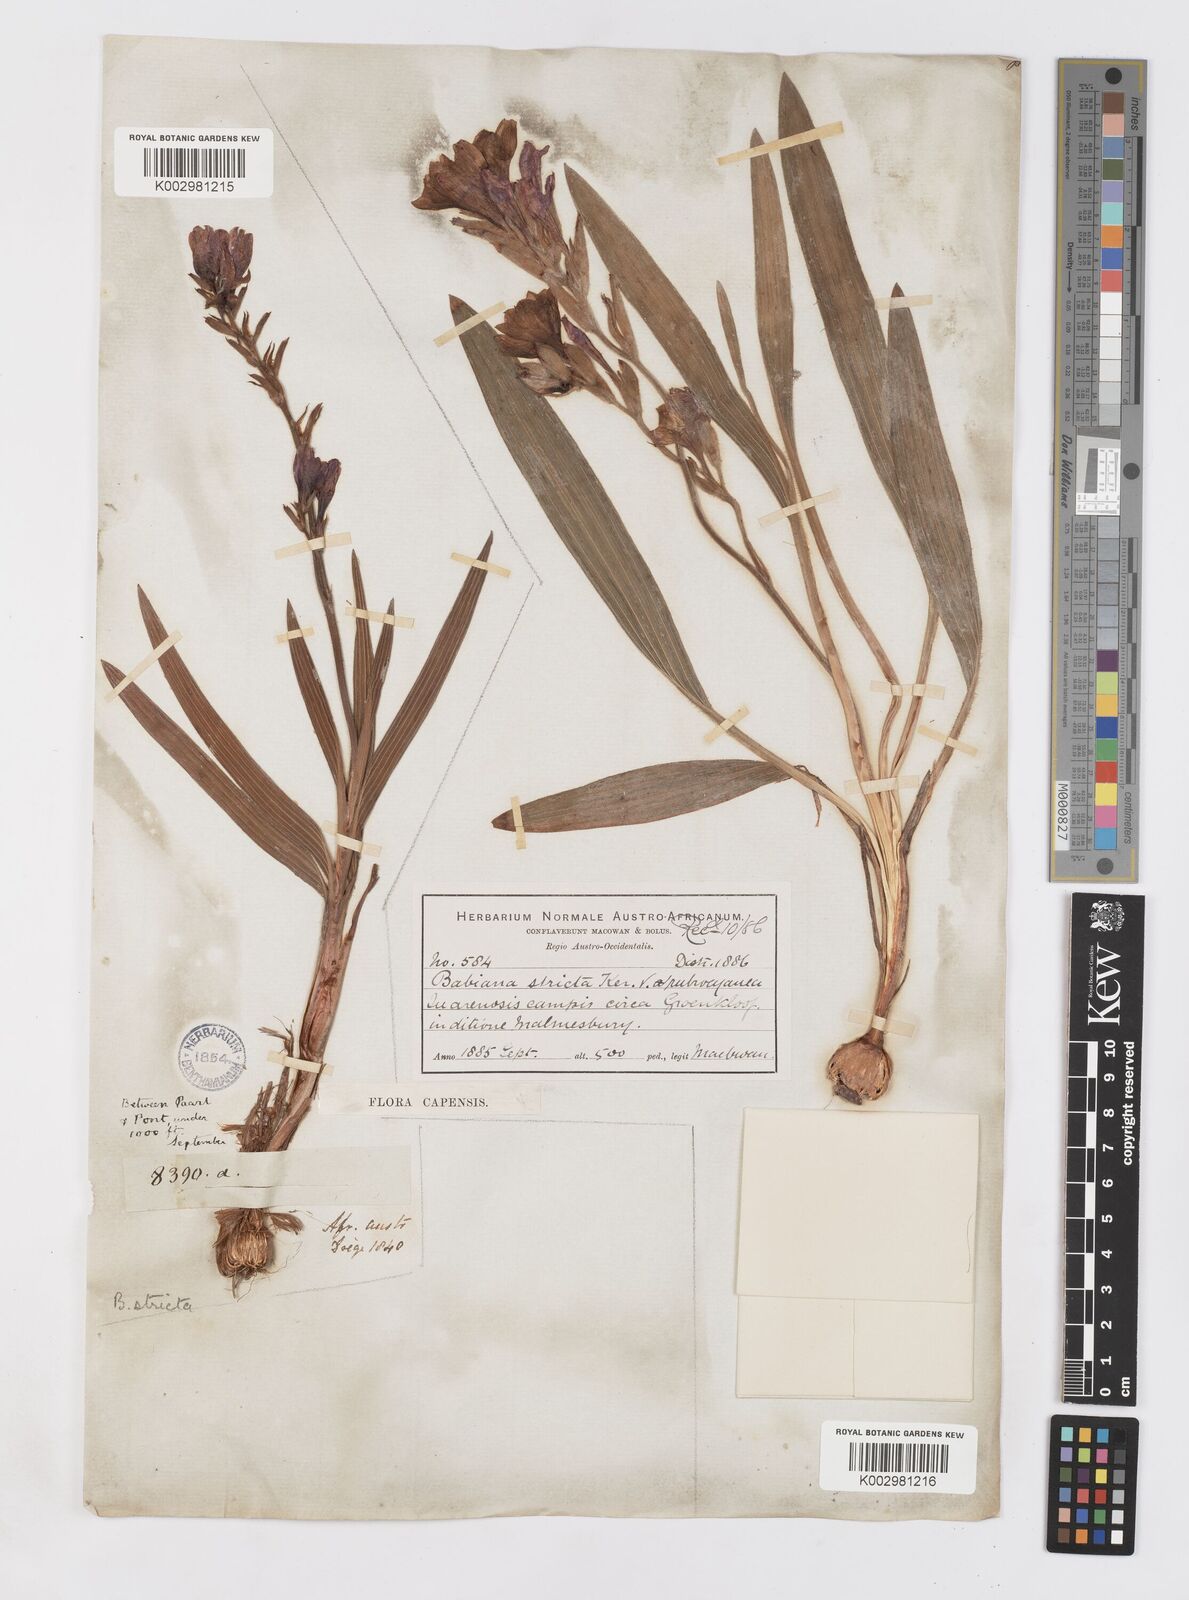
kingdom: Plantae
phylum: Tracheophyta
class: Liliopsida
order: Asparagales
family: Iridaceae
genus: Babiana
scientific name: Babiana rubrocyanea
